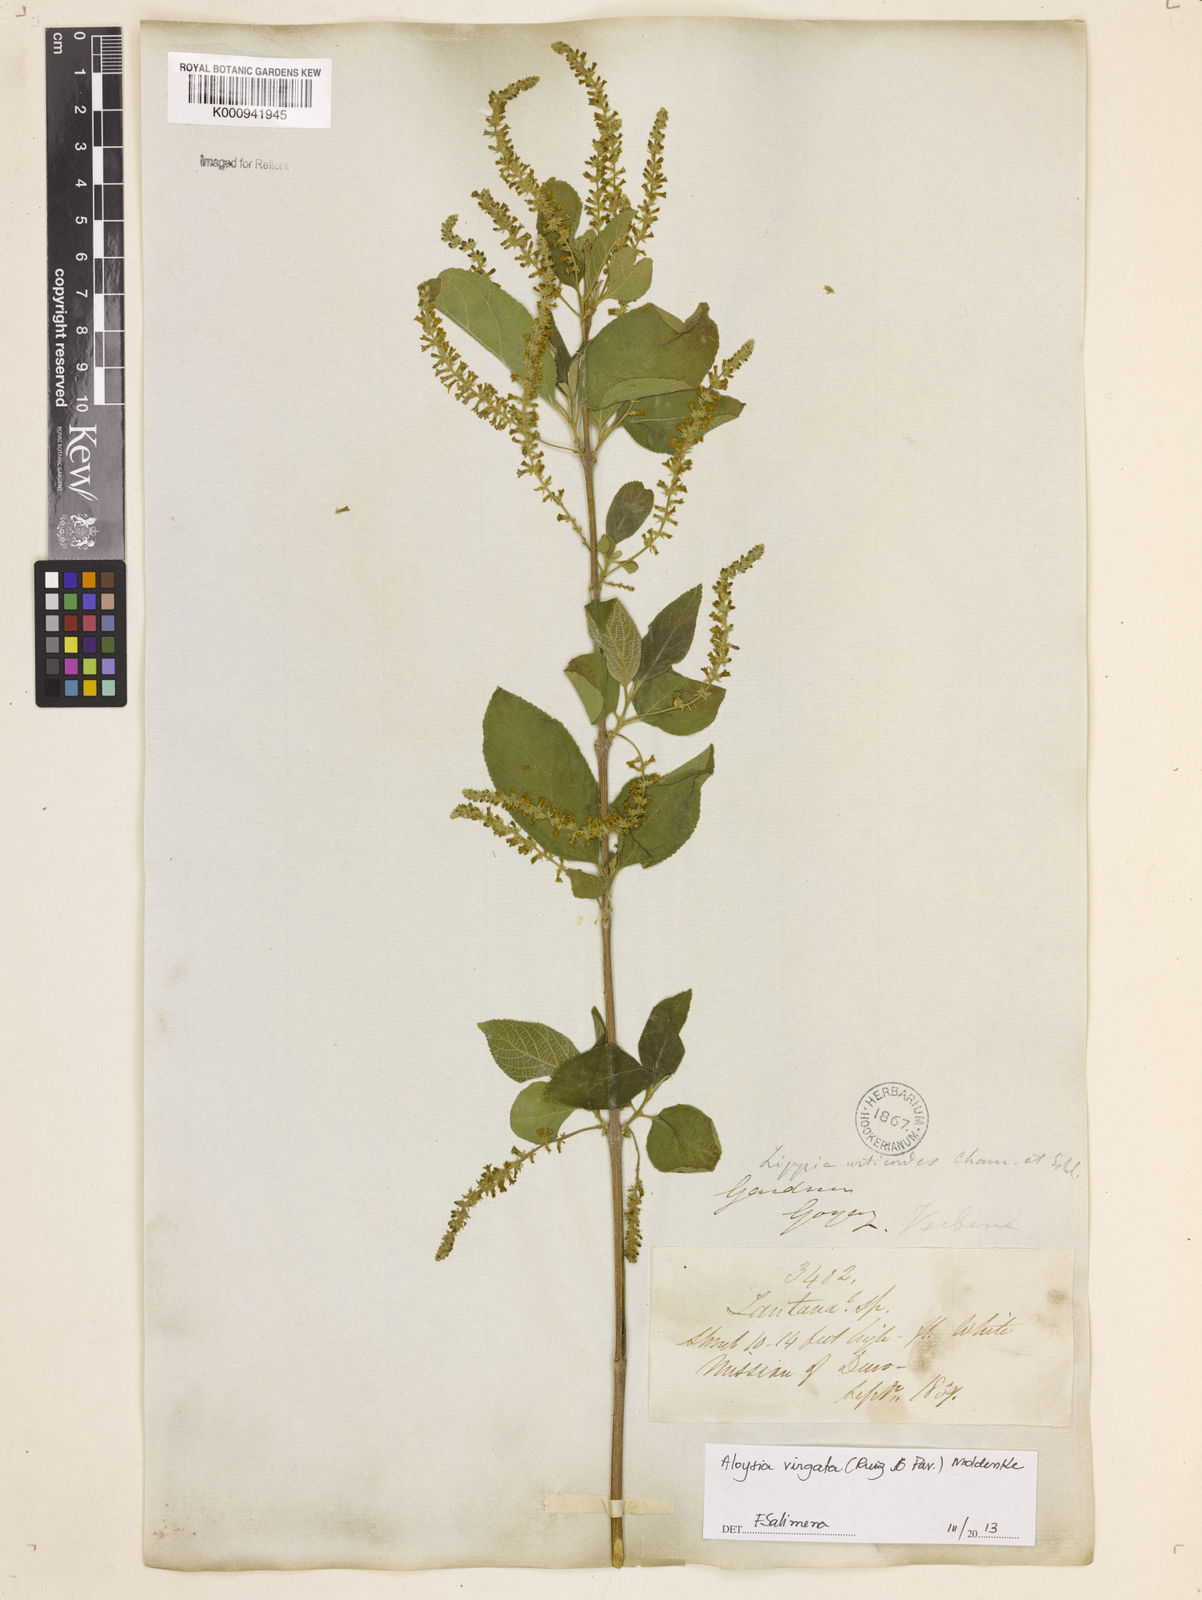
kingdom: Plantae
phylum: Tracheophyta
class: Magnoliopsida
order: Lamiales
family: Verbenaceae
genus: Aloysia
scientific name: Aloysia
